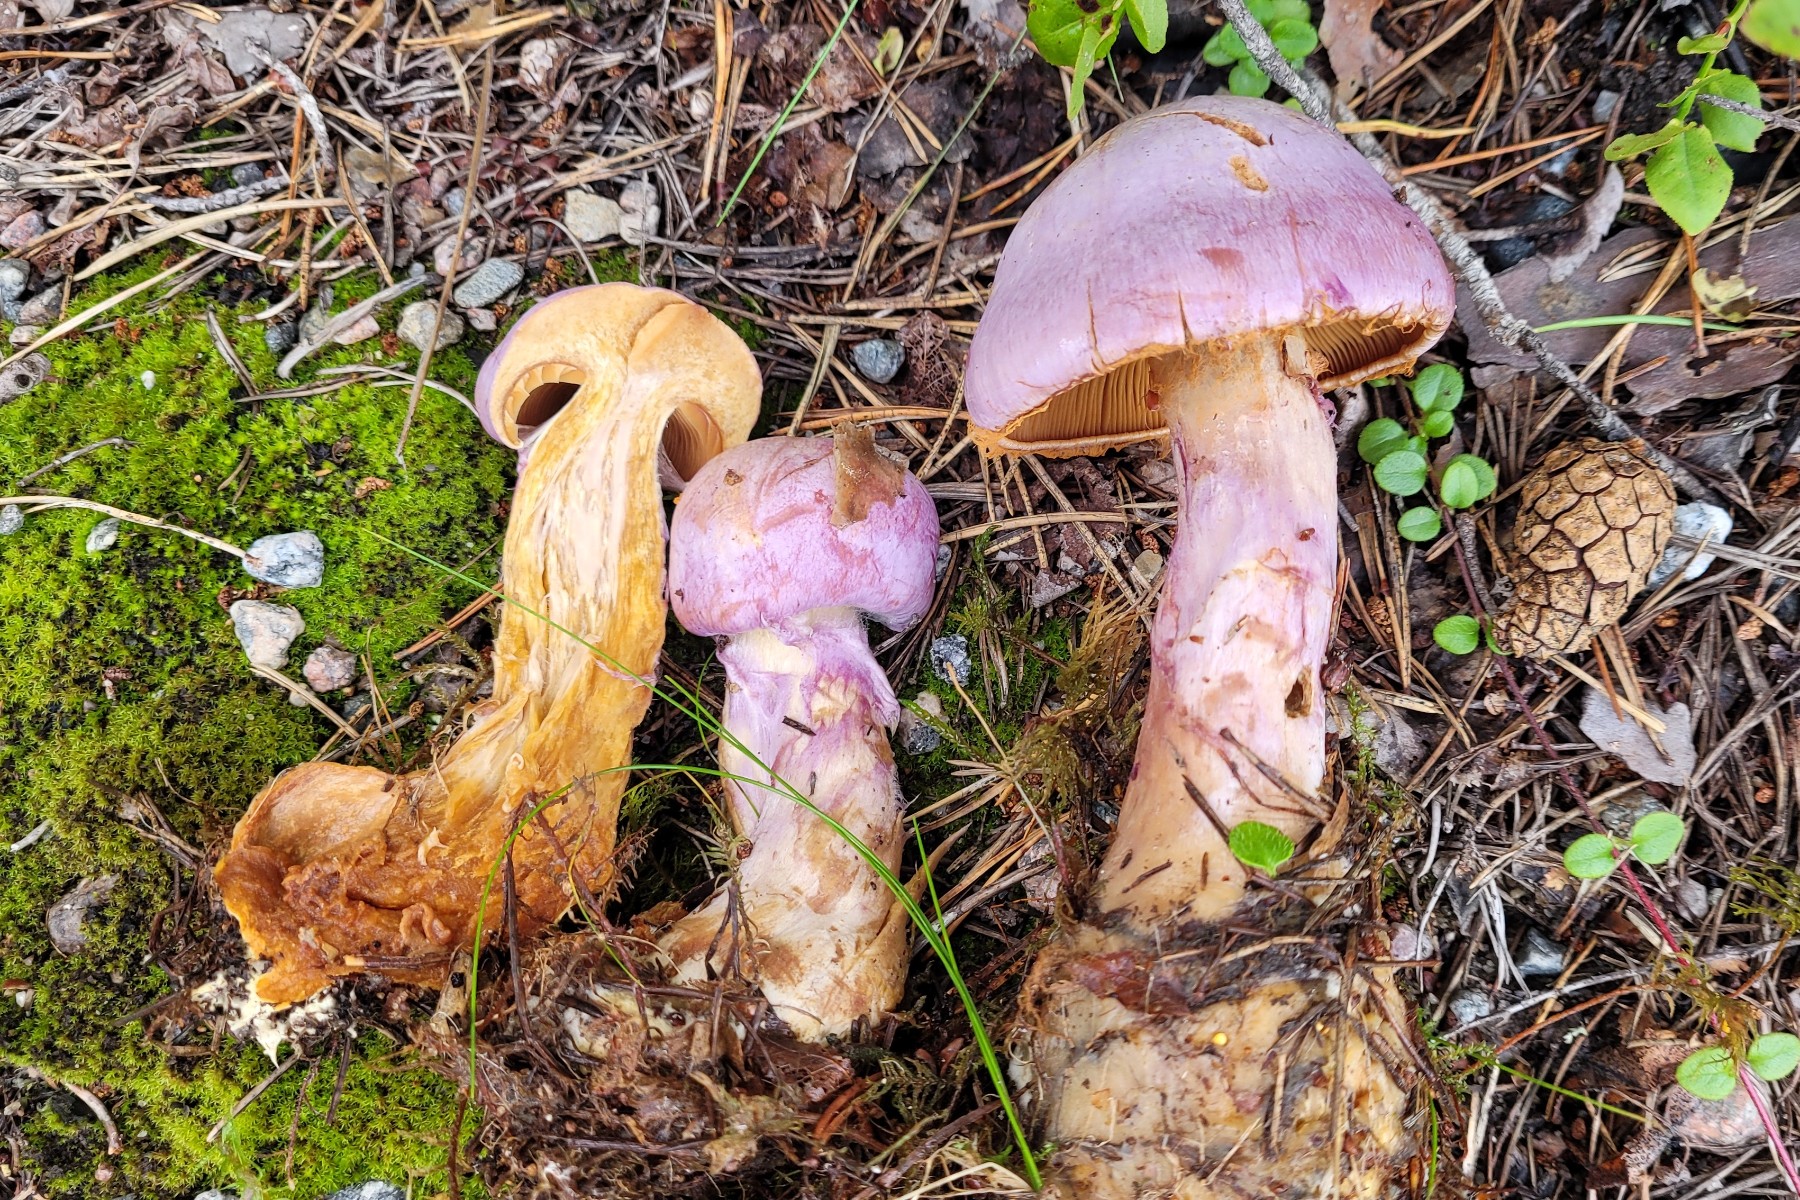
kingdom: Fungi
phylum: Basidiomycota
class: Agaricomycetes
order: Agaricales
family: Cortinariaceae
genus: Cortinarius
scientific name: Cortinarius traganus
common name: safrankødet slørhat
